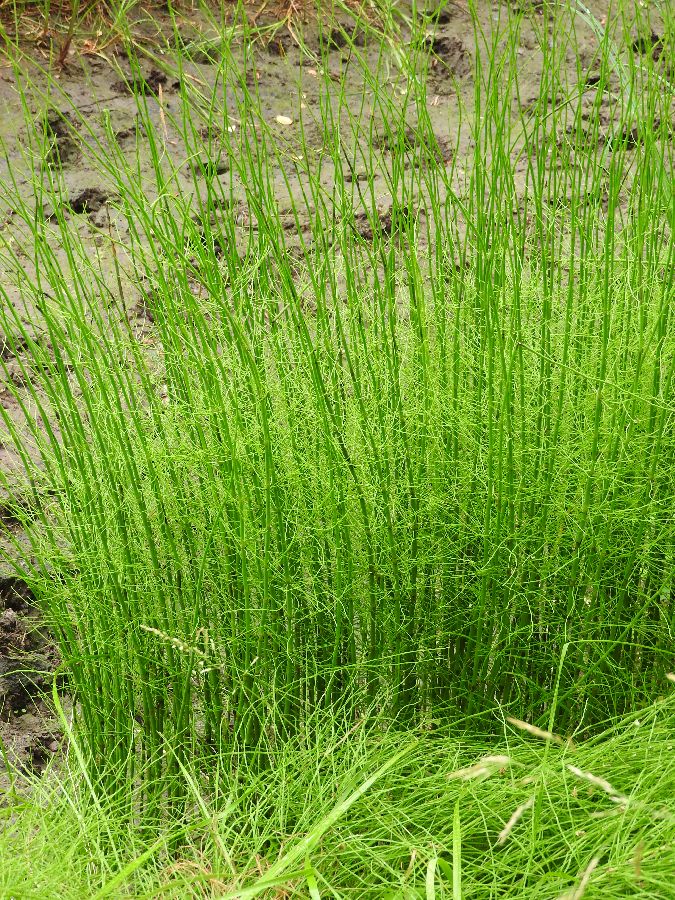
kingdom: Plantae
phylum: Tracheophyta
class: Polypodiopsida
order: Equisetales
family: Equisetaceae
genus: Equisetum
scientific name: Equisetum fluviatile
